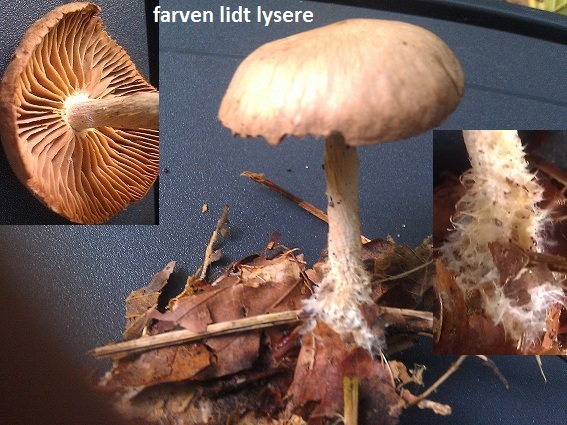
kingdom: Fungi
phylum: Basidiomycota
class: Agaricomycetes
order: Agaricales
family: Omphalotaceae
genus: Collybiopsis
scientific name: Collybiopsis peronata
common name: bestøvlet fladhat
